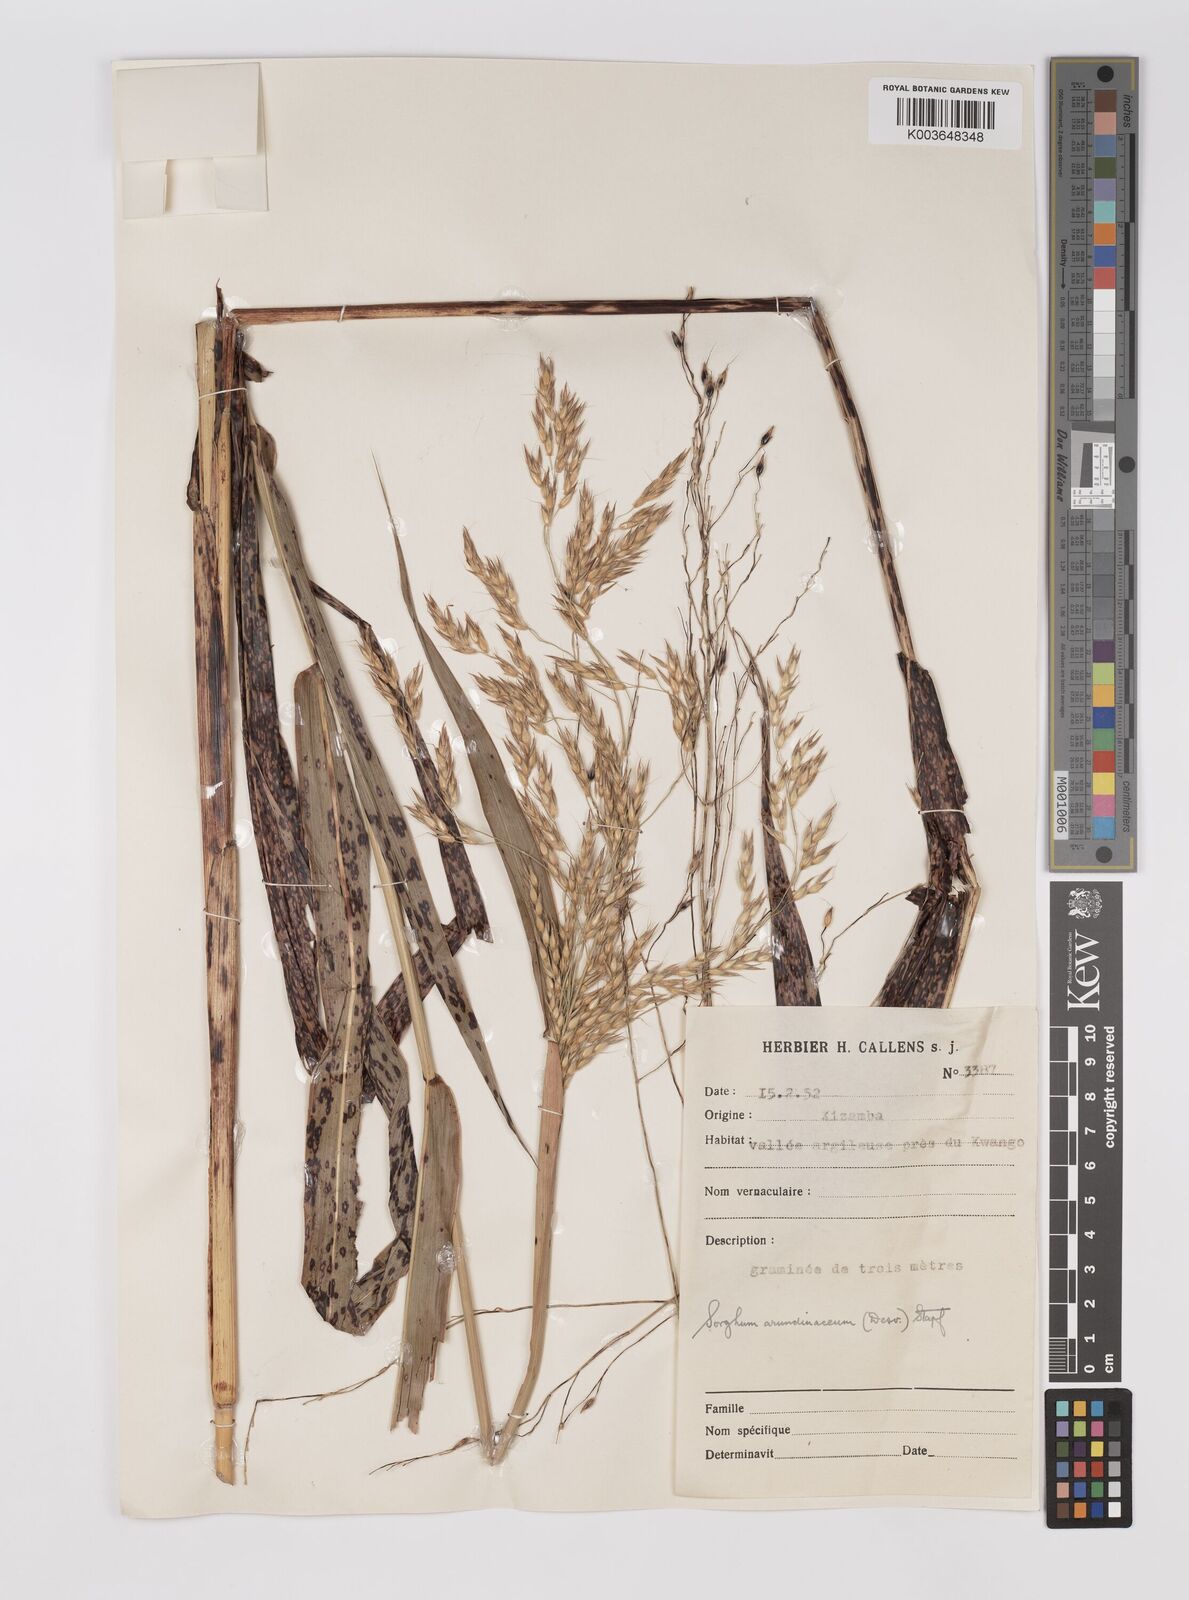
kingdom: Plantae
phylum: Tracheophyta
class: Liliopsida
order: Poales
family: Poaceae
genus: Sorghum
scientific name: Sorghum arundinaceum
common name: Sorghum
